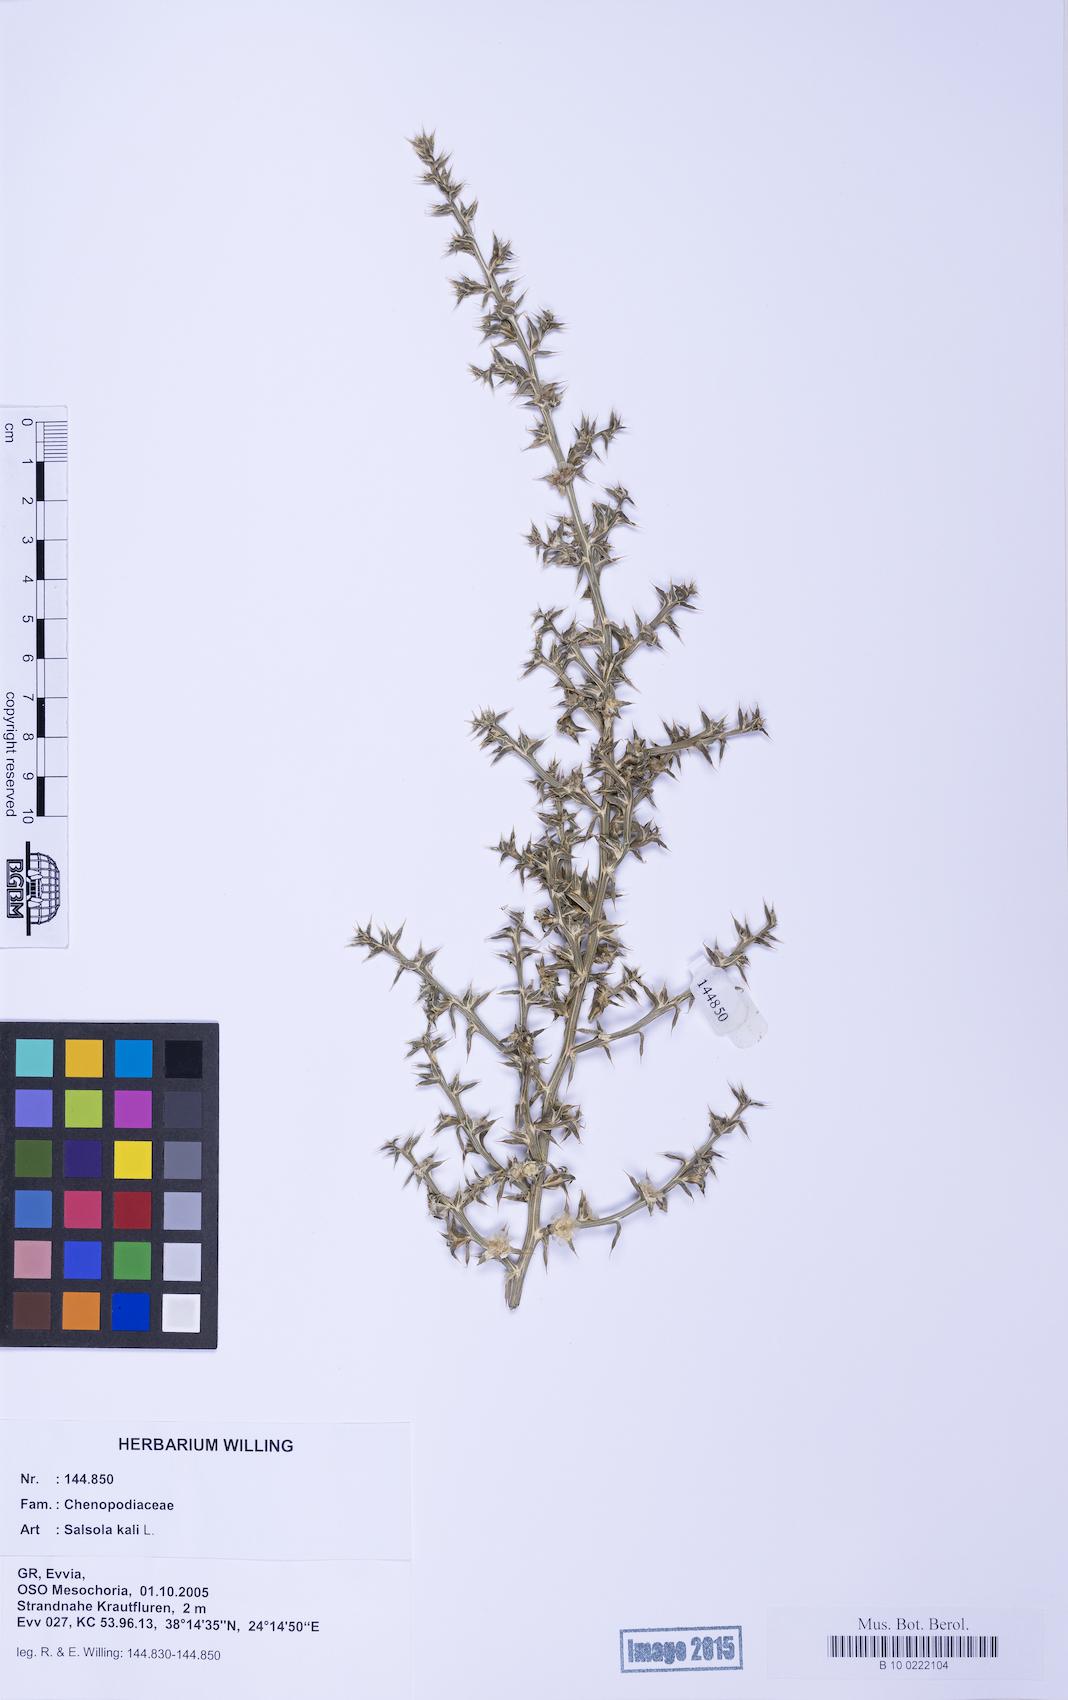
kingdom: Plantae
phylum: Tracheophyta
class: Magnoliopsida
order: Caryophyllales
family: Amaranthaceae
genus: Salsola
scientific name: Salsola kali
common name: Saltwort
